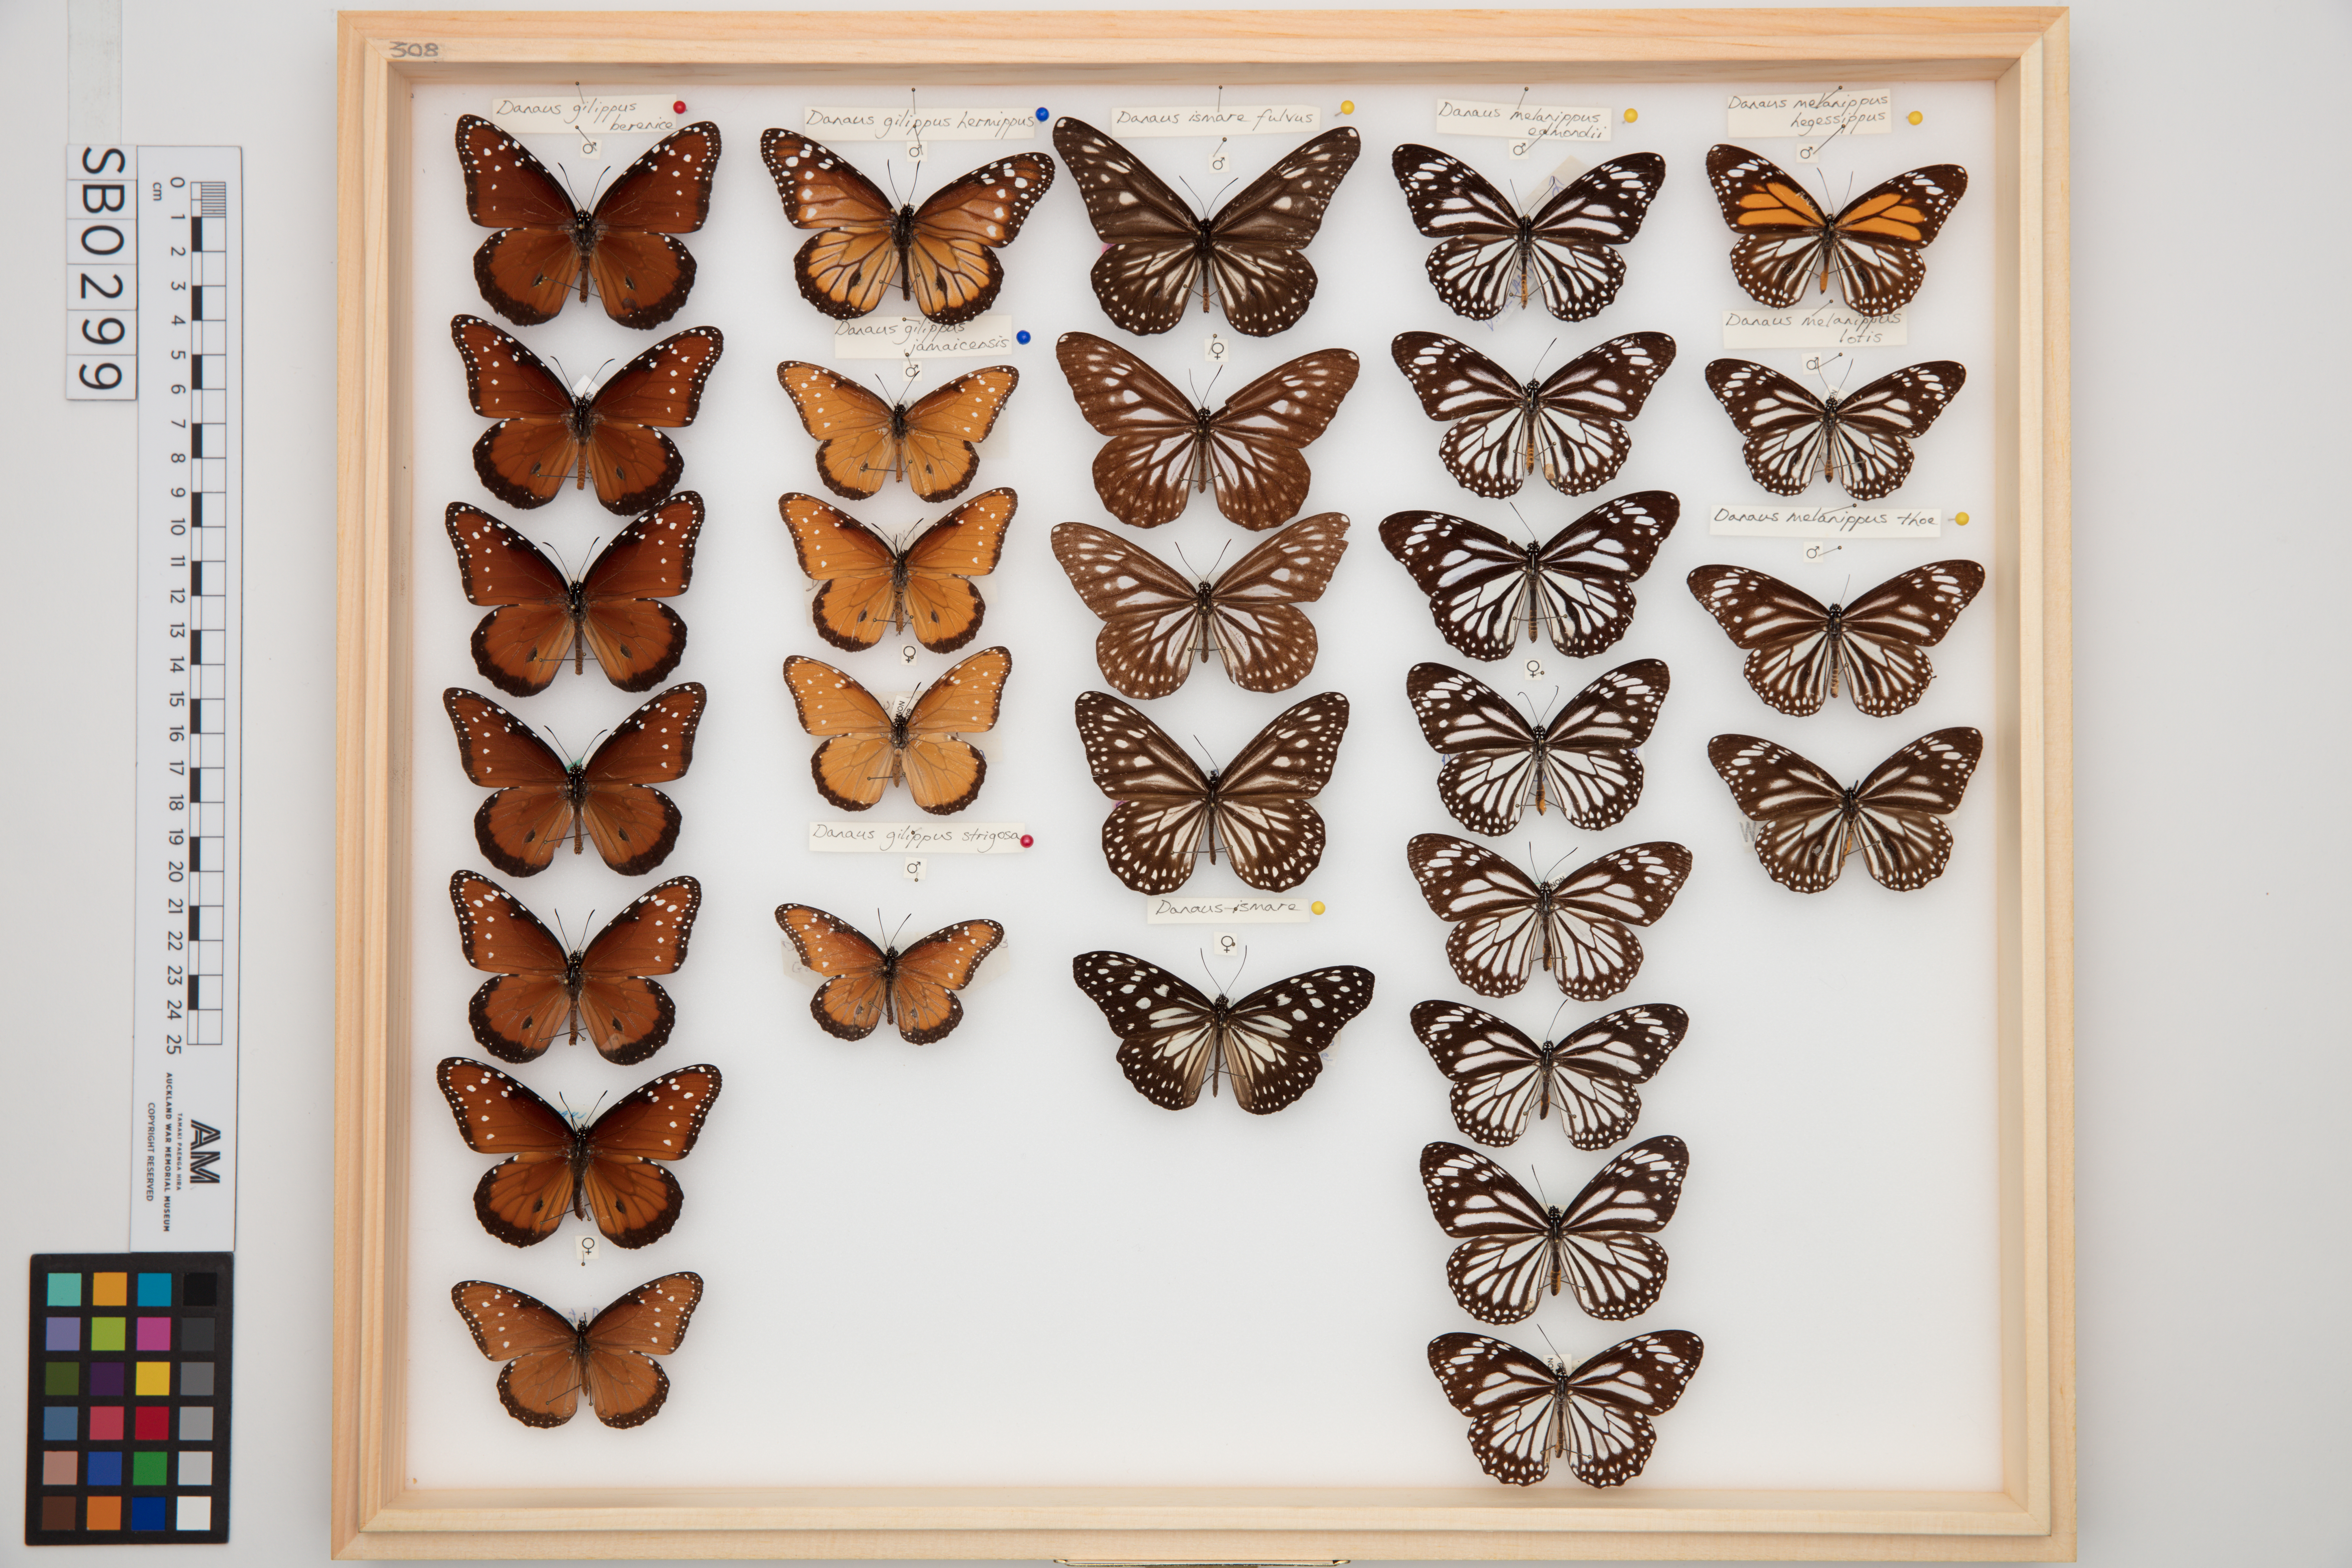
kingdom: Animalia
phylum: Arthropoda
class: Insecta
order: Lepidoptera
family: Nymphalidae
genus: Danaus
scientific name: Danaus ismare
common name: Ismare tiger butterfly
